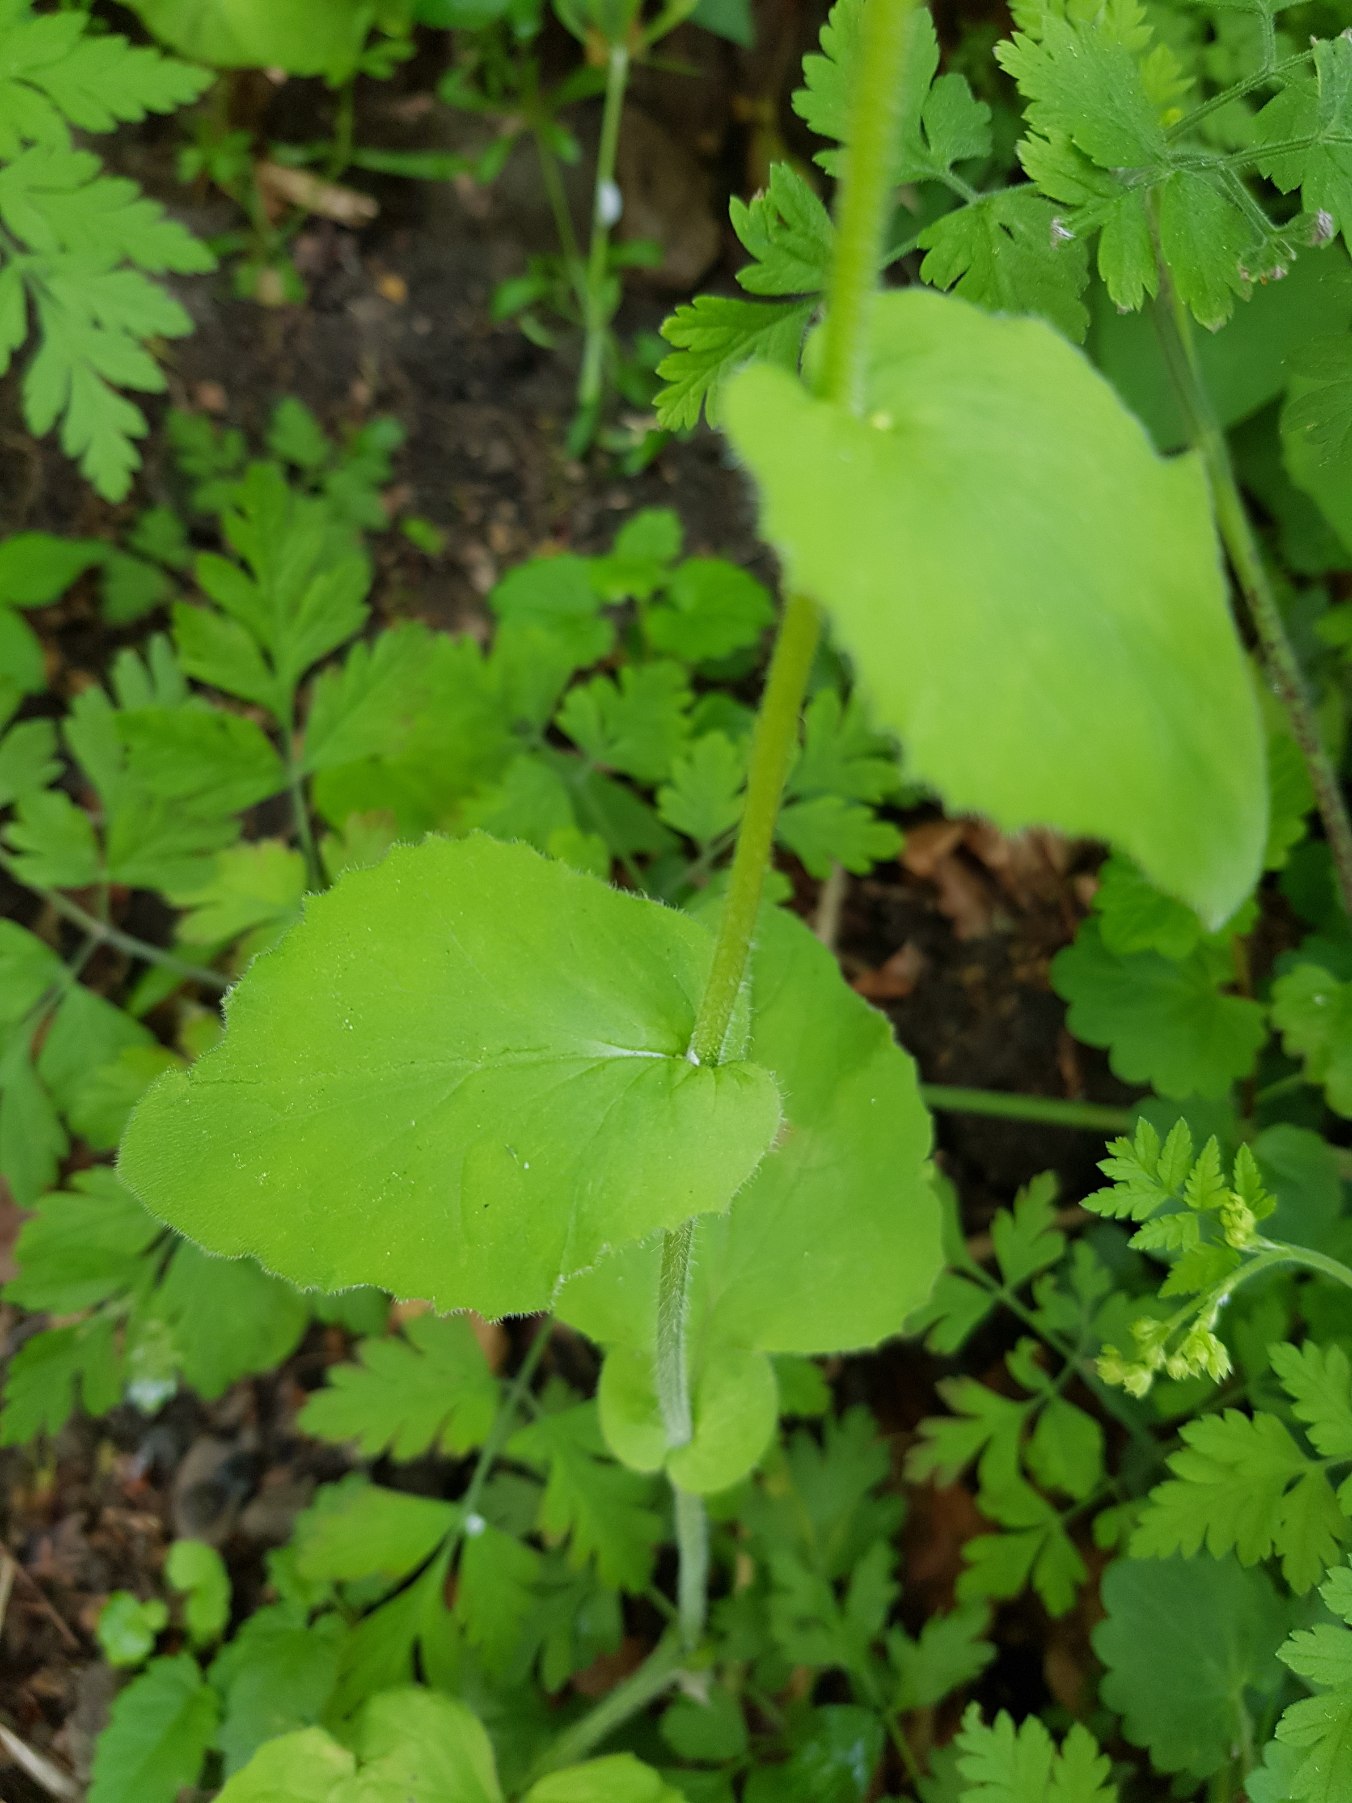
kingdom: Plantae
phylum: Tracheophyta
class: Magnoliopsida
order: Asterales
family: Asteraceae
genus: Doronicum
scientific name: Doronicum pardalianches
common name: Hjertebladet gemserod
